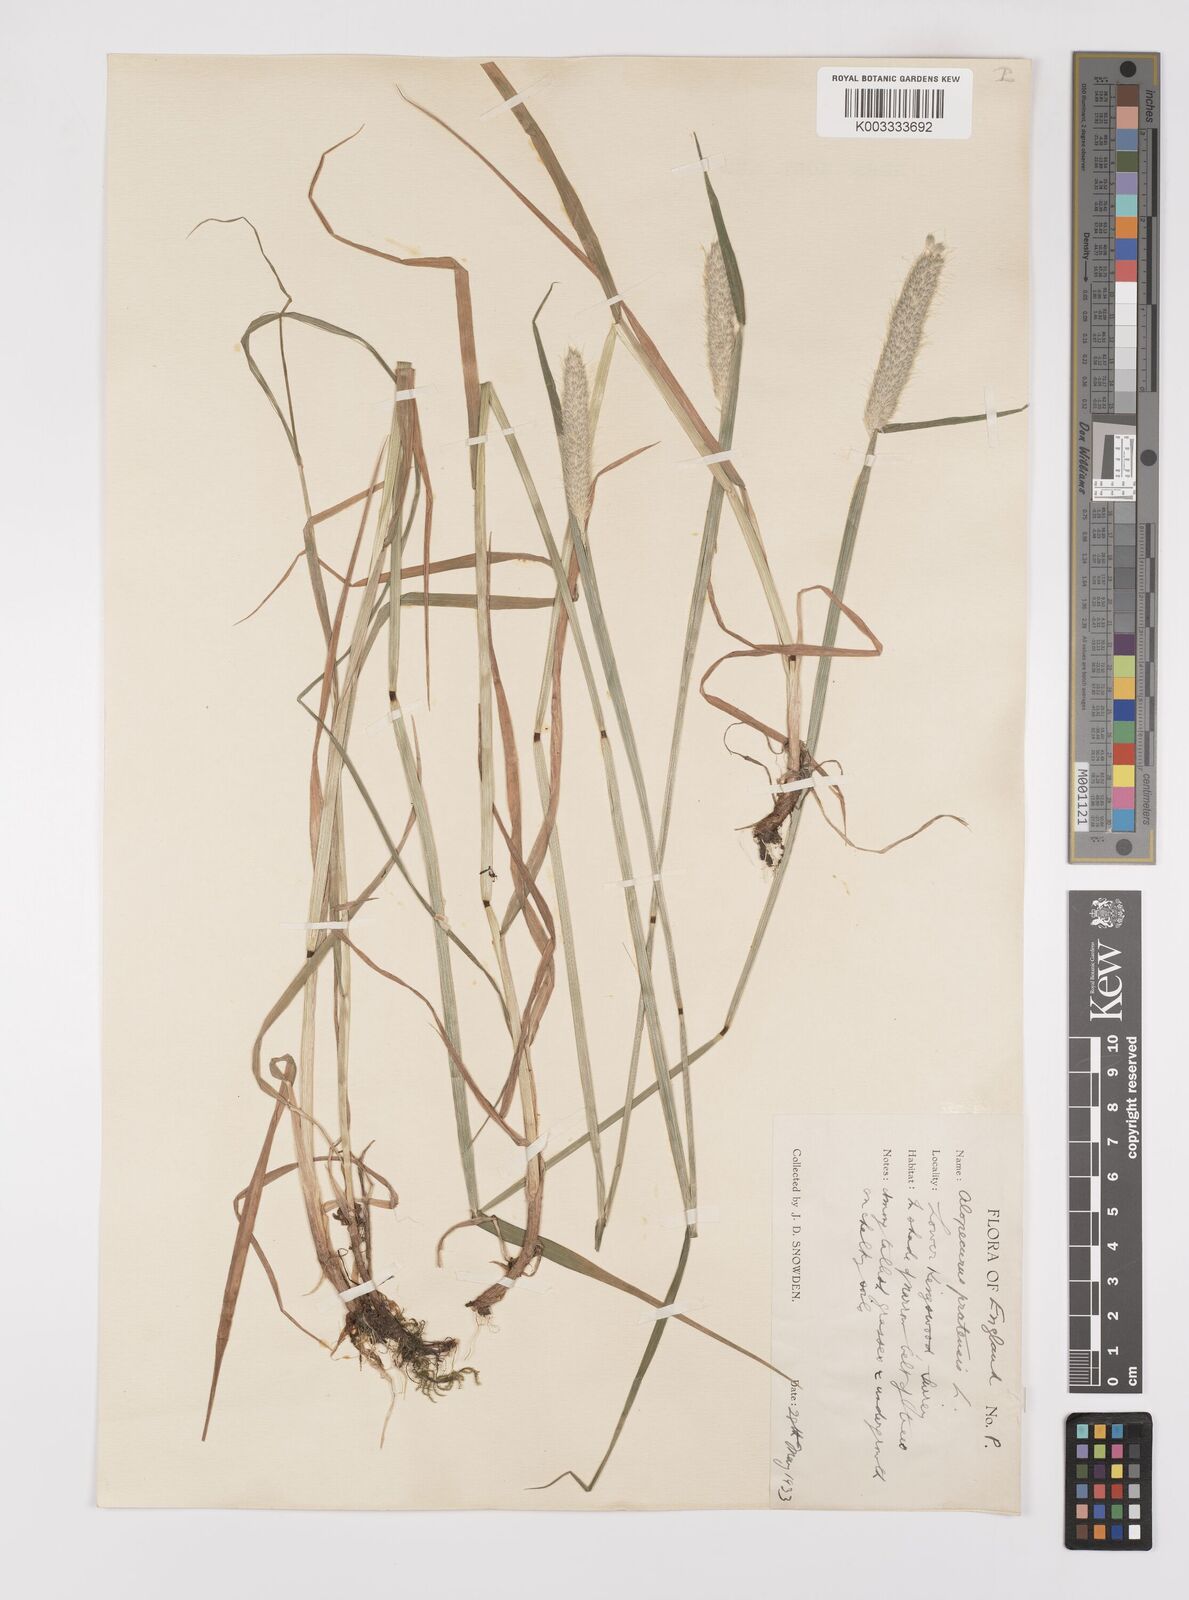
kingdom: Plantae
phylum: Tracheophyta
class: Liliopsida
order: Poales
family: Poaceae
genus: Alopecurus
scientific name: Alopecurus pratensis
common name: Meadow foxtail
